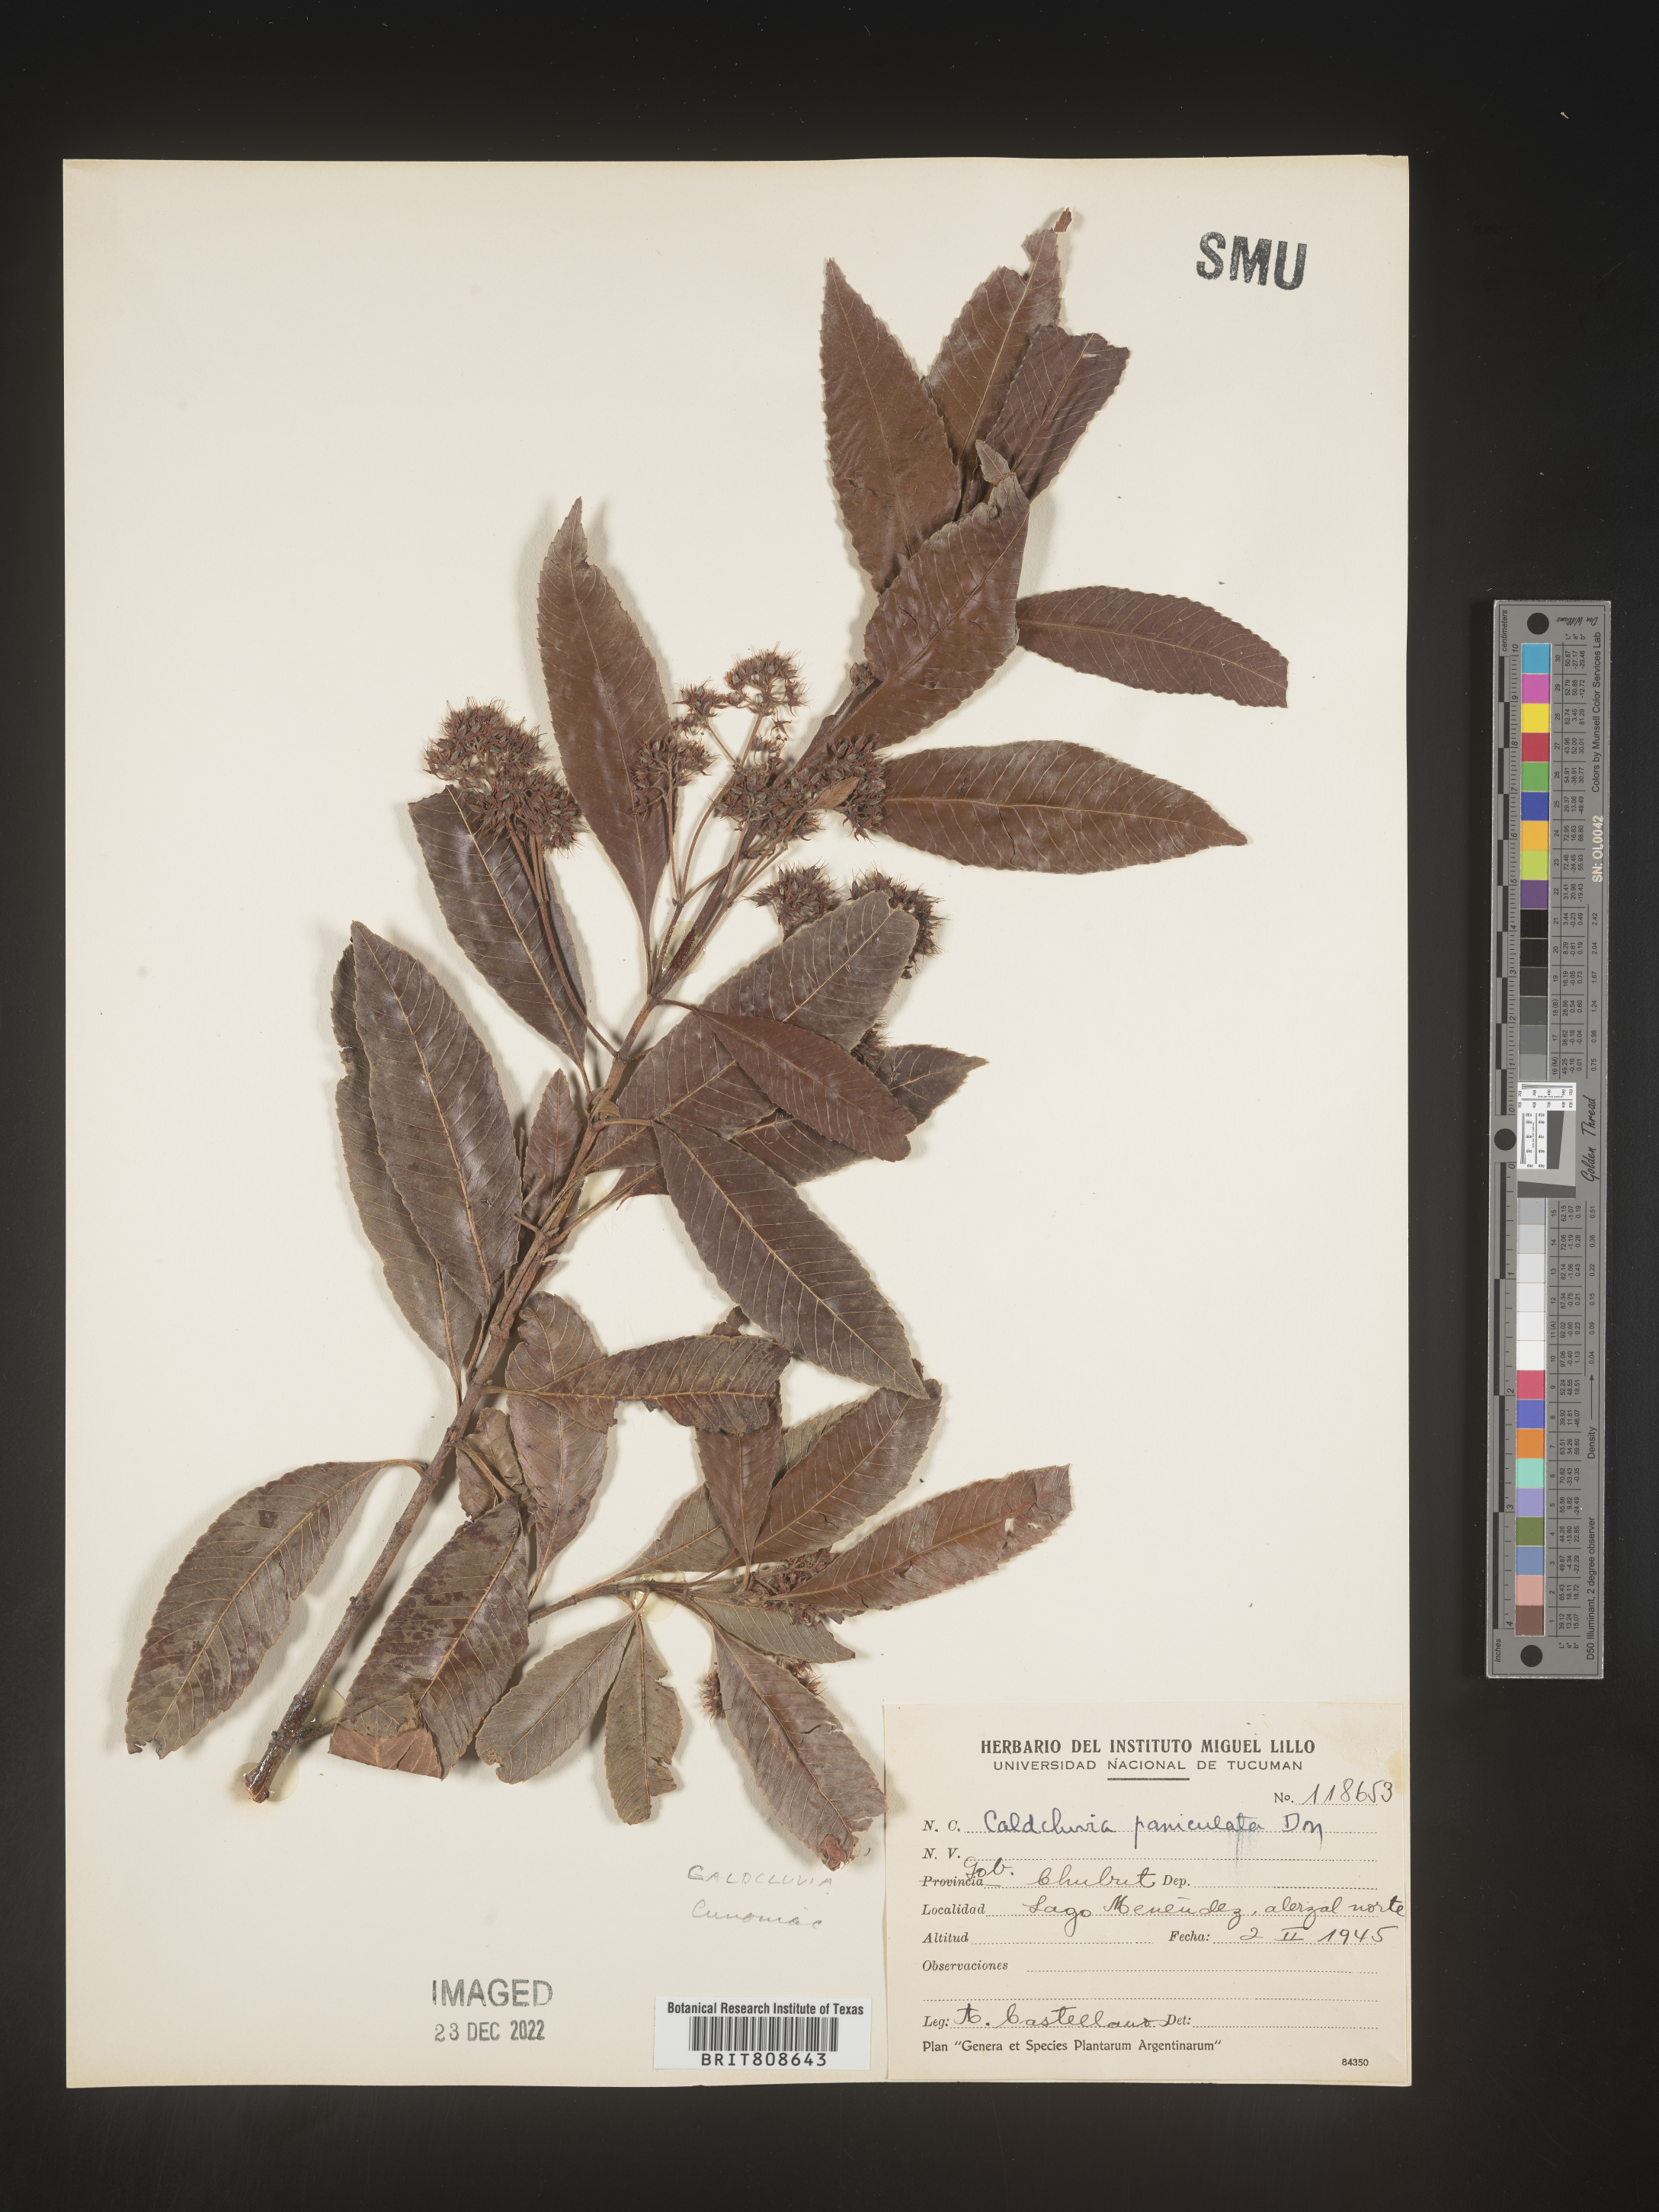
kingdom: Plantae
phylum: Tracheophyta
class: Magnoliopsida
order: Oxalidales
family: Cunoniaceae
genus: Caldcluvia
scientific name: Caldcluvia
